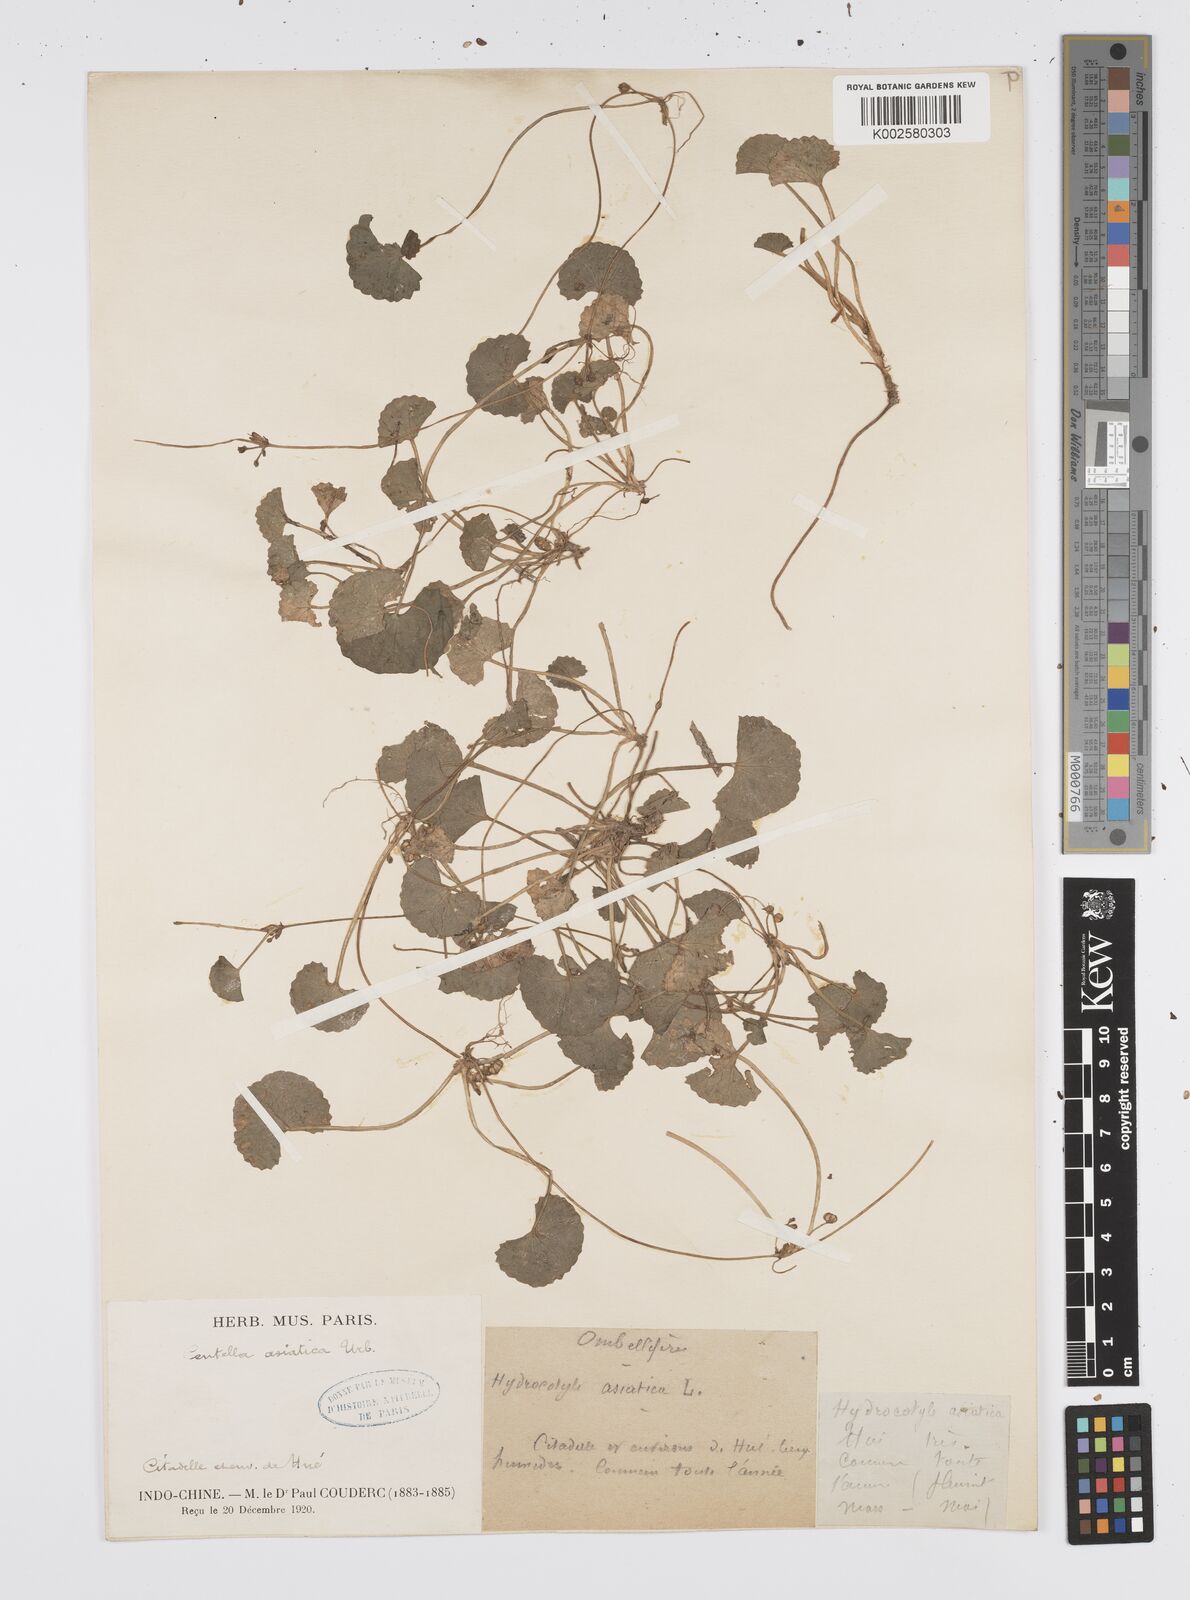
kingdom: Plantae
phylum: Tracheophyta
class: Magnoliopsida
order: Apiales
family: Apiaceae
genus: Centella
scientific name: Centella asiatica
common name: Spadeleaf
